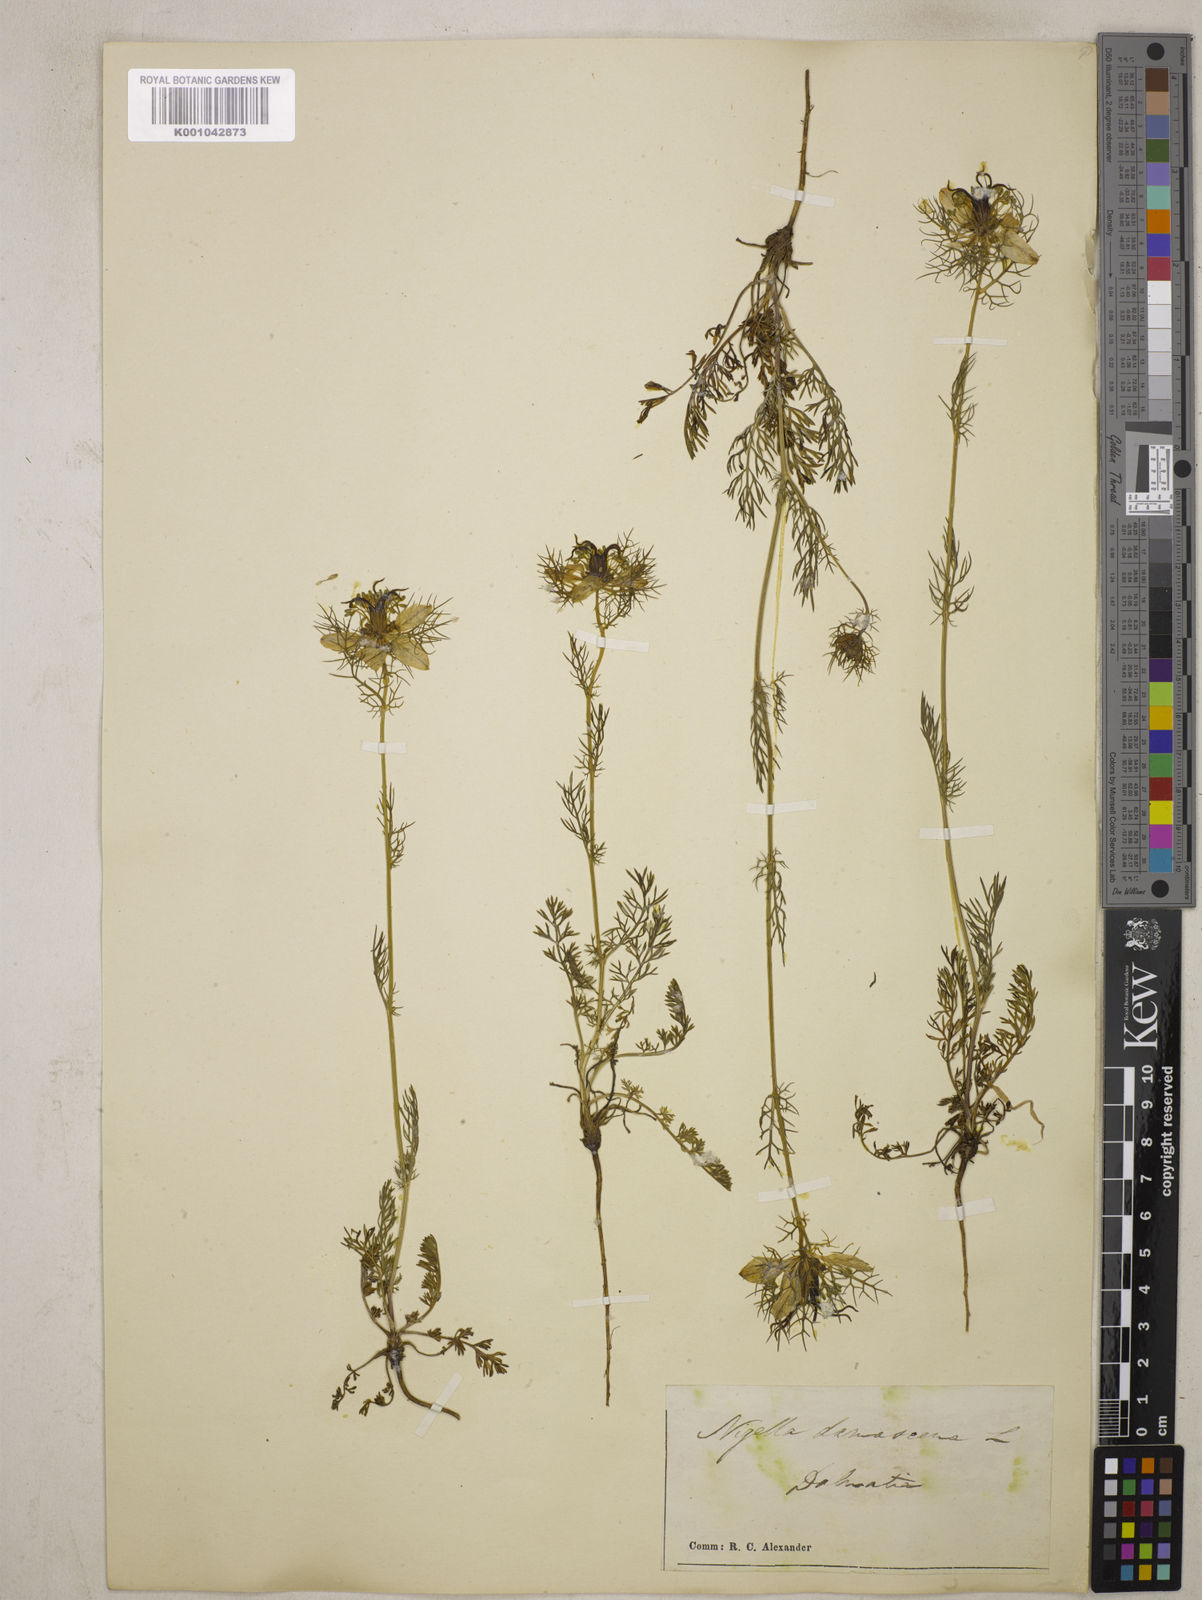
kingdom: Plantae
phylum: Tracheophyta
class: Magnoliopsida
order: Ranunculales
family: Ranunculaceae
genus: Nigella
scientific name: Nigella damascena
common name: Love-in-a-mist
